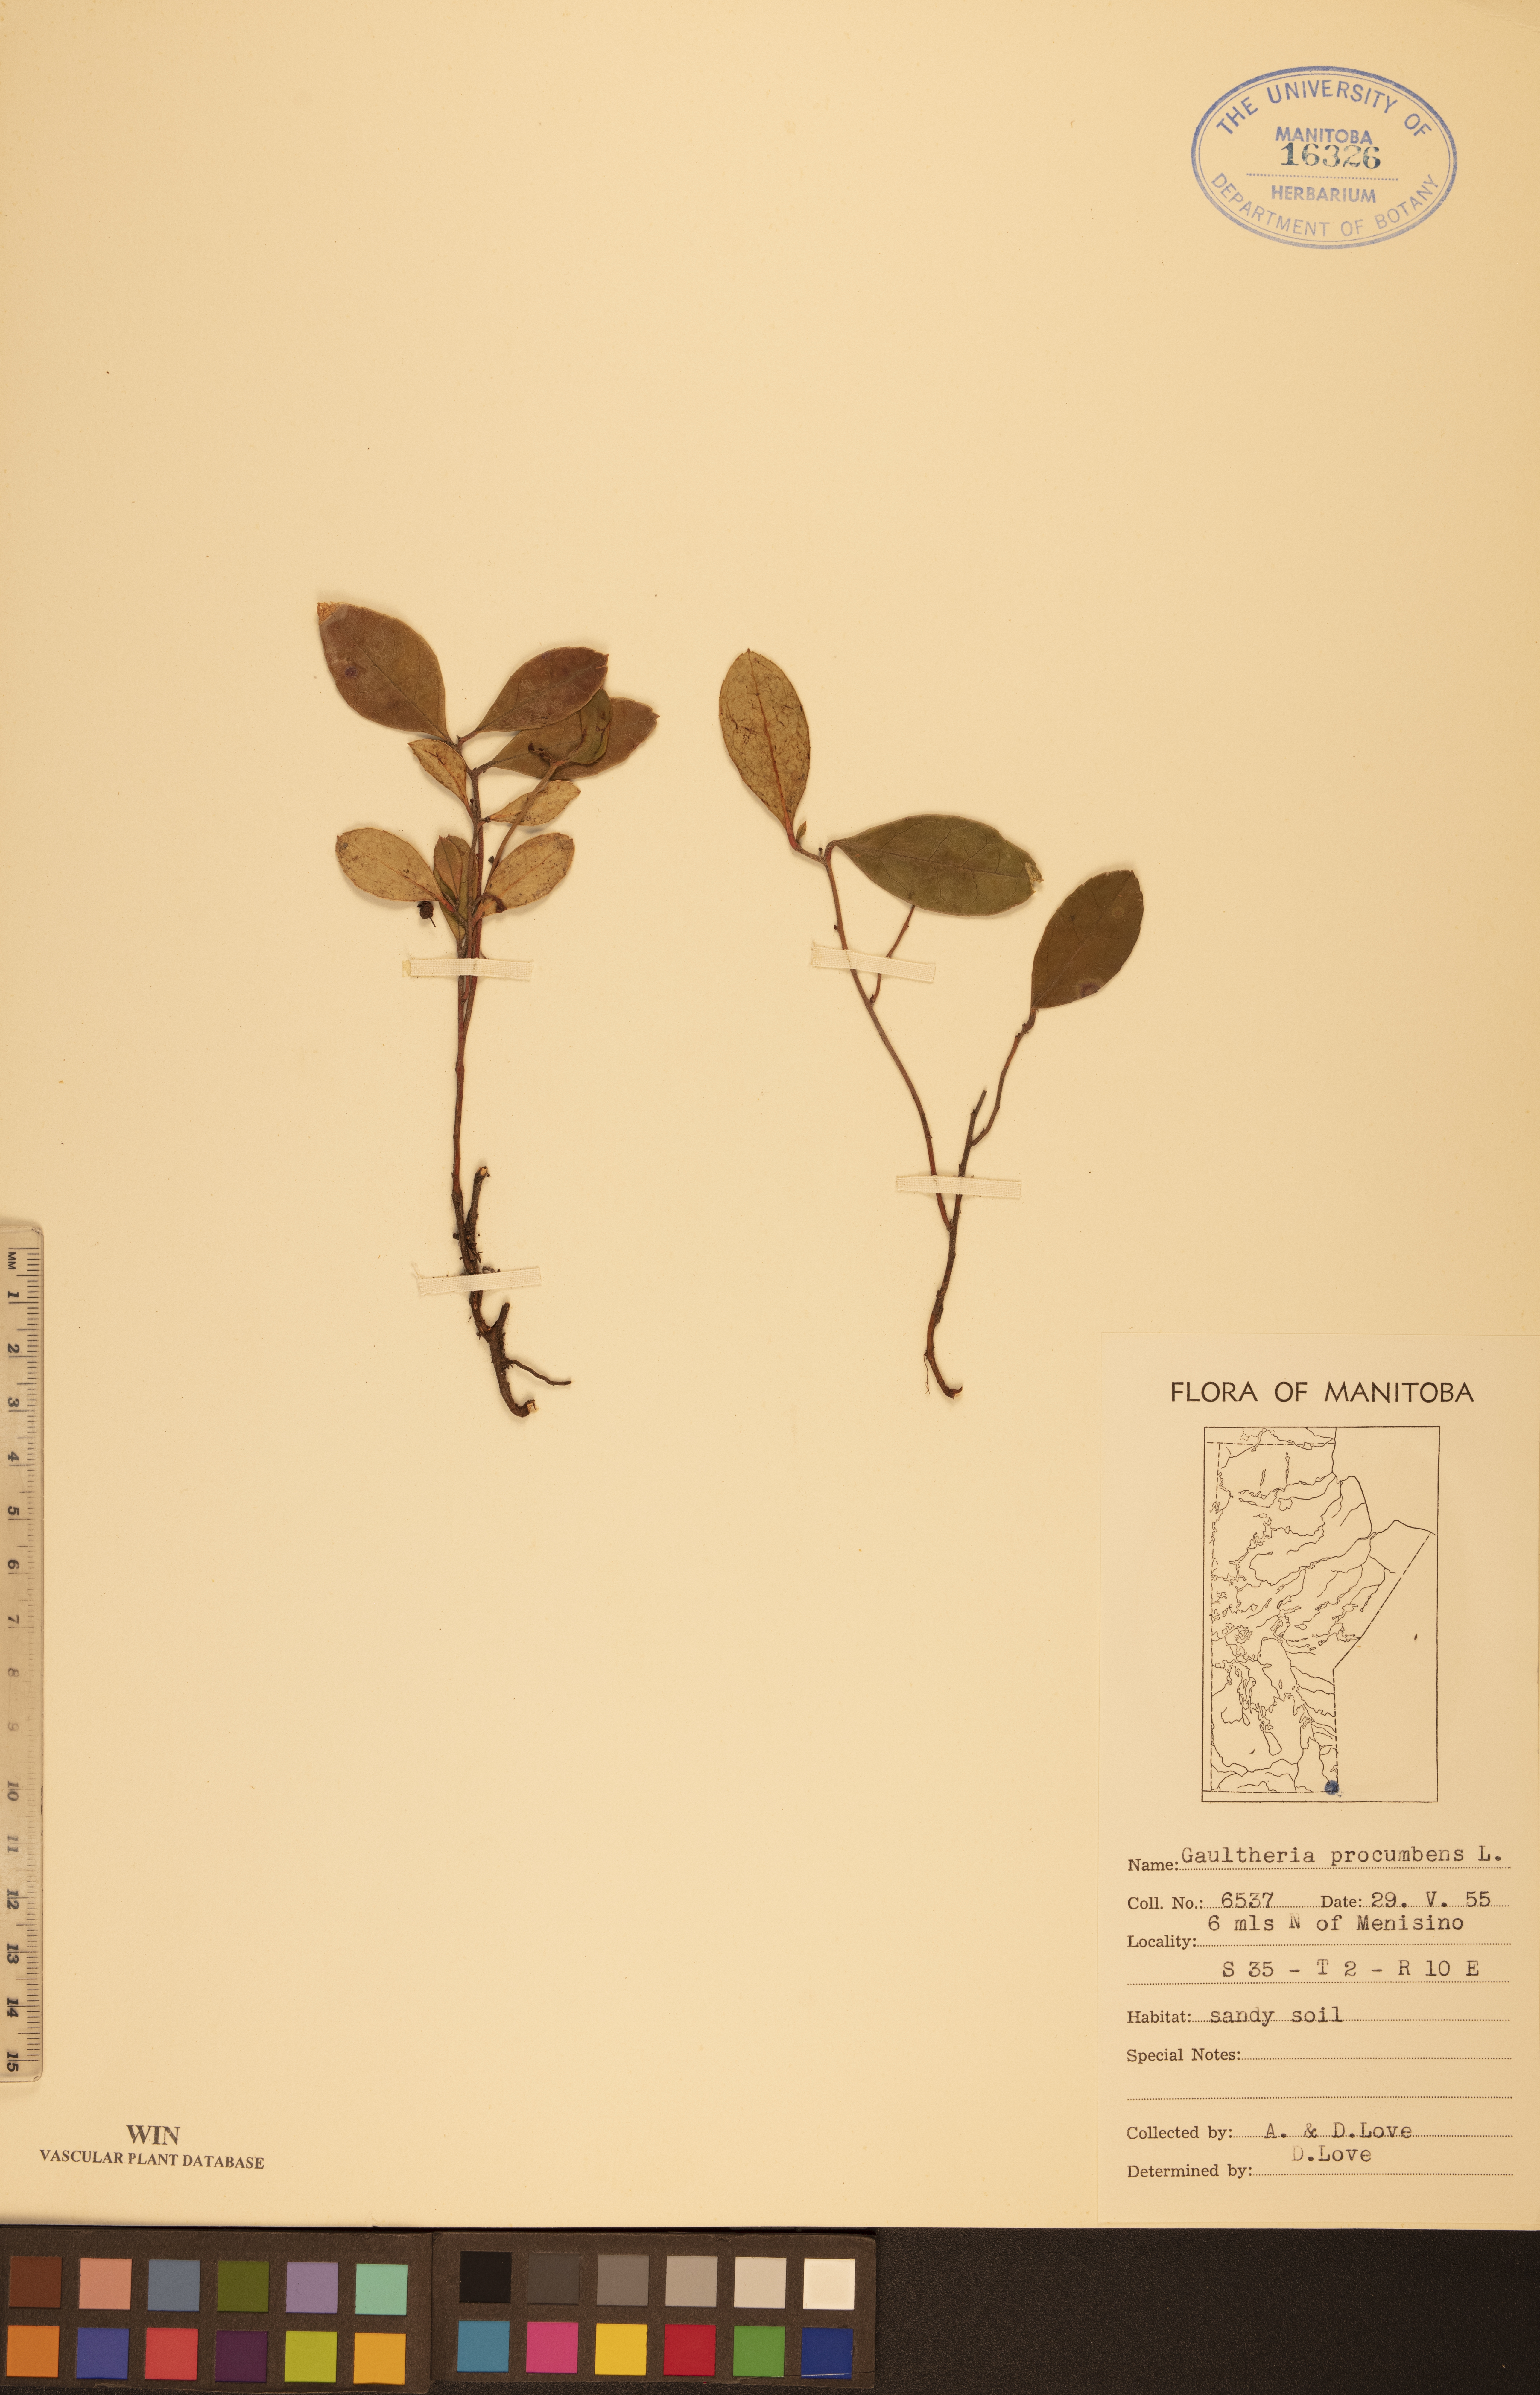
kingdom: Plantae
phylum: Tracheophyta
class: Magnoliopsida
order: Ericales
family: Ericaceae
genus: Gaultheria
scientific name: Gaultheria procumbens
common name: Checkerberry
